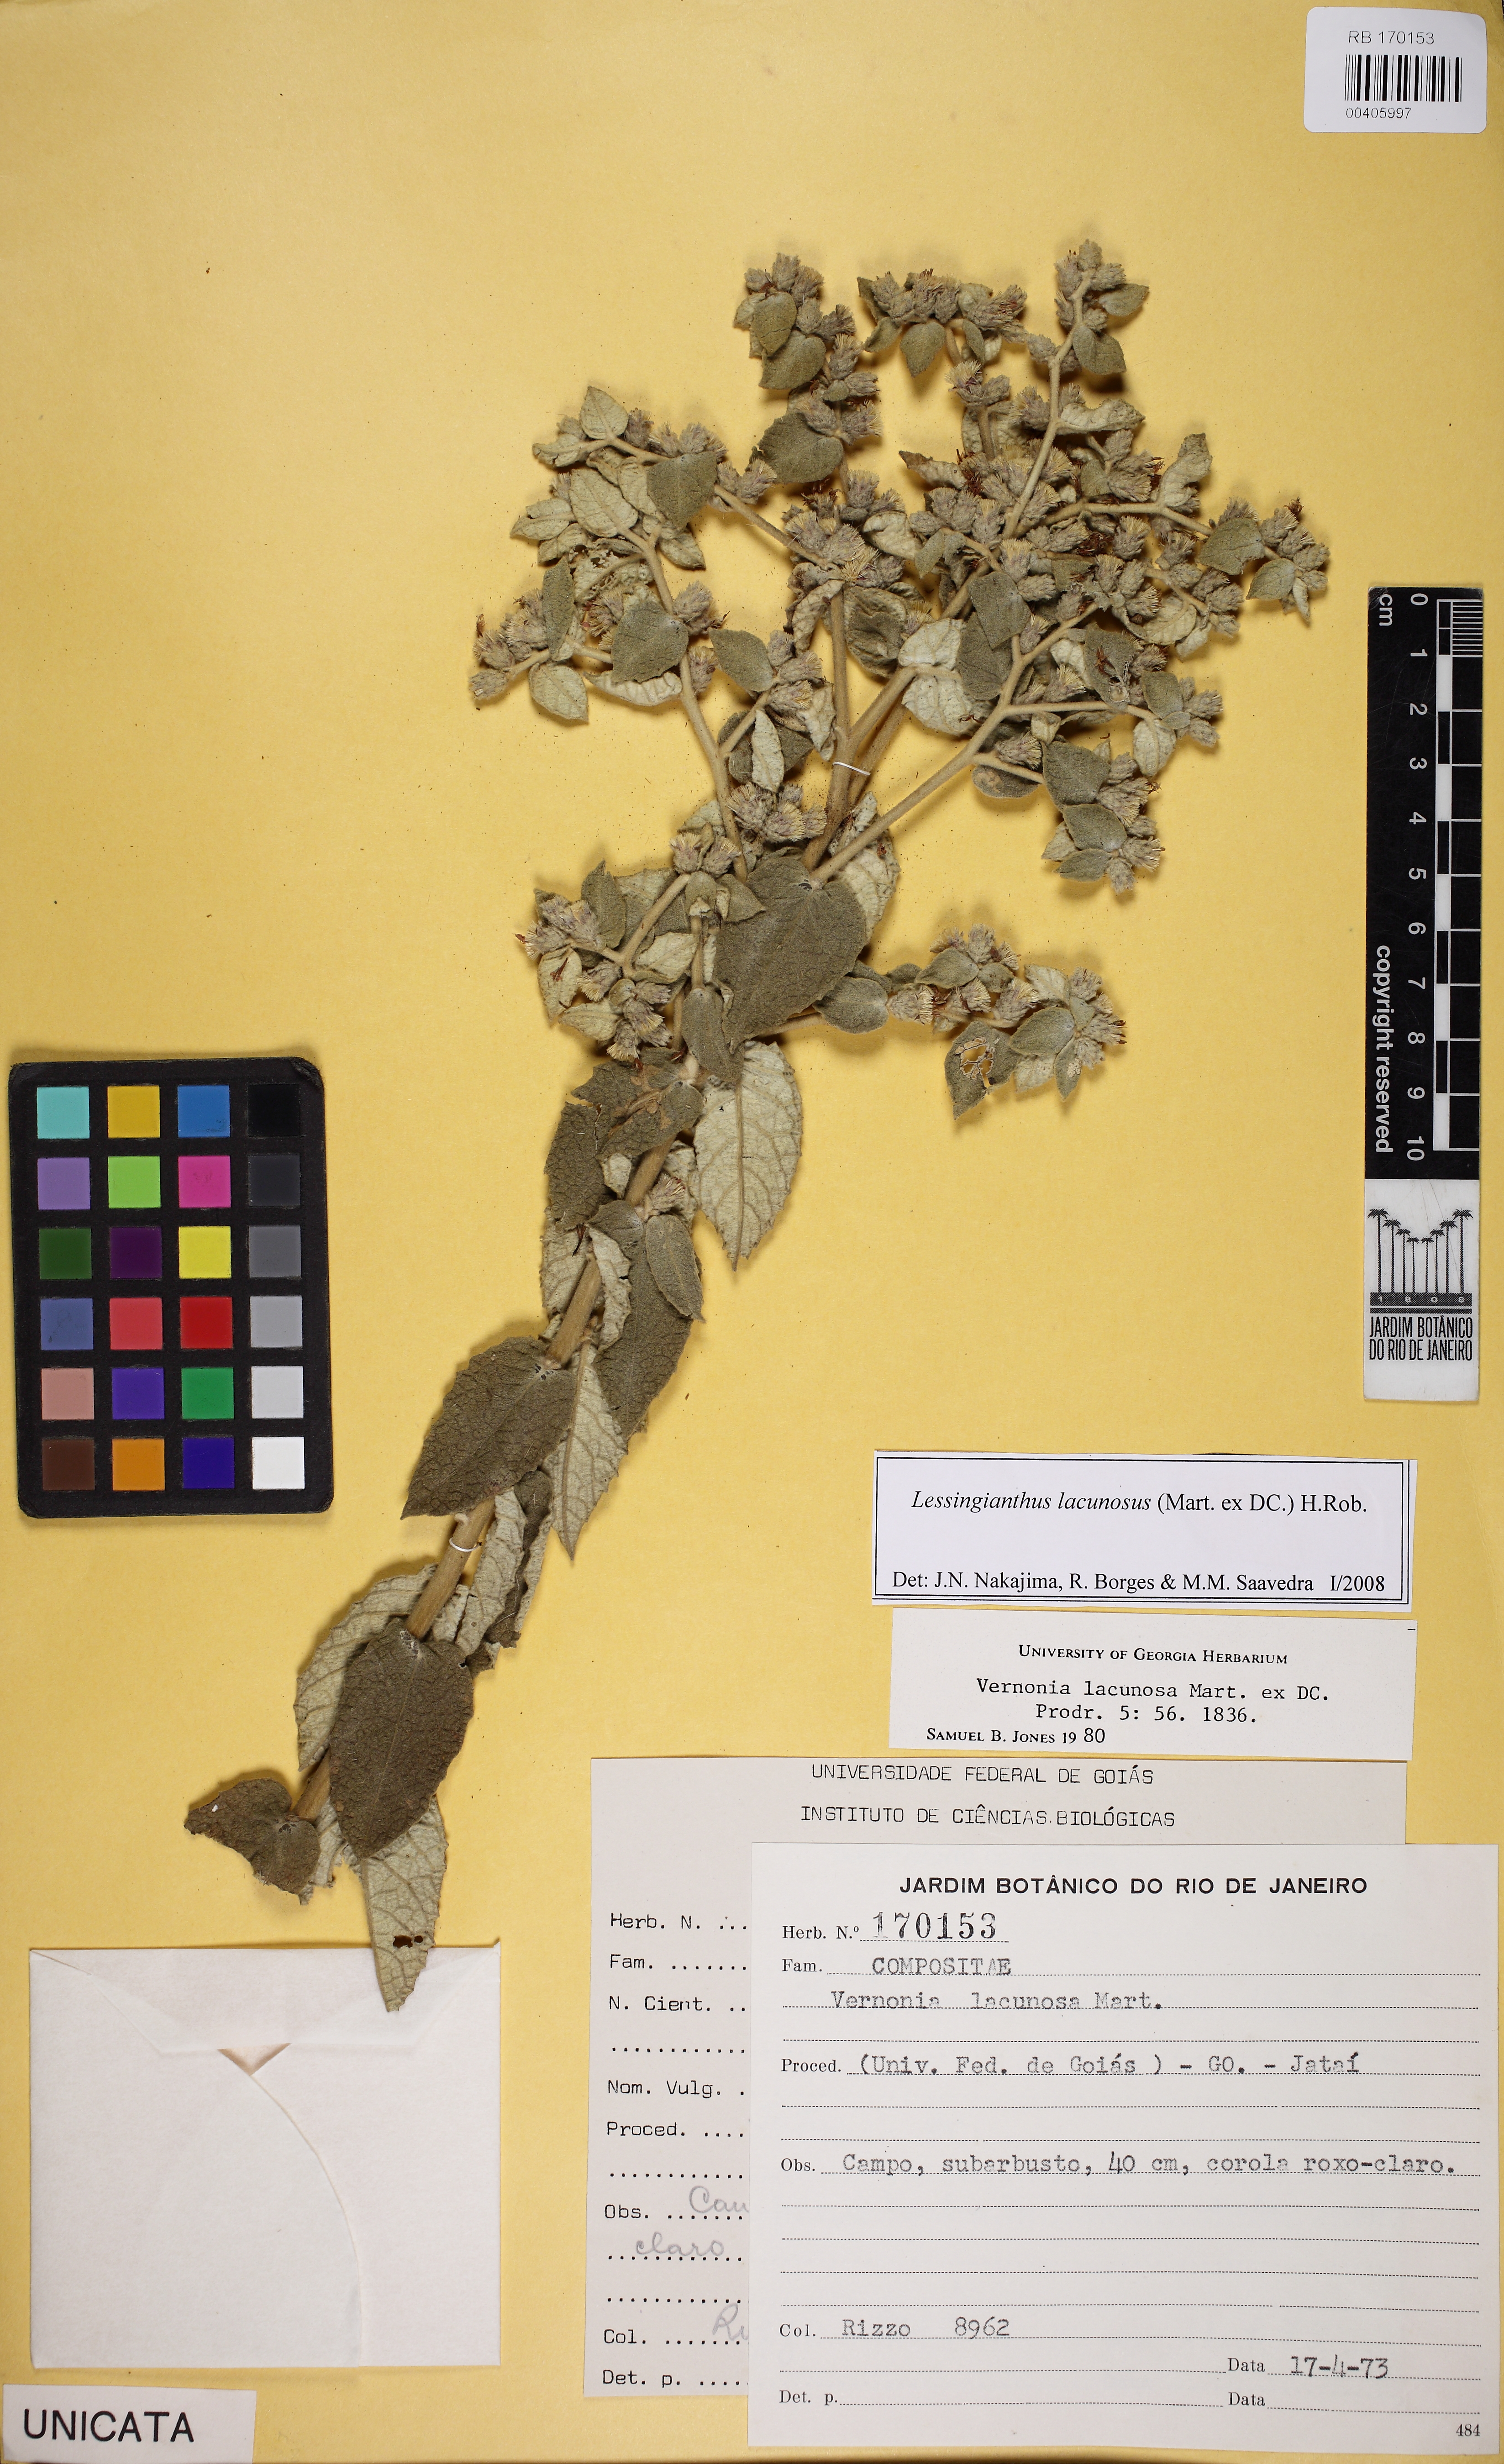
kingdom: Plantae
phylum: Tracheophyta
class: Magnoliopsida
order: Asterales
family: Asteraceae
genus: Lessingianthus
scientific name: Lessingianthus lacunosus
